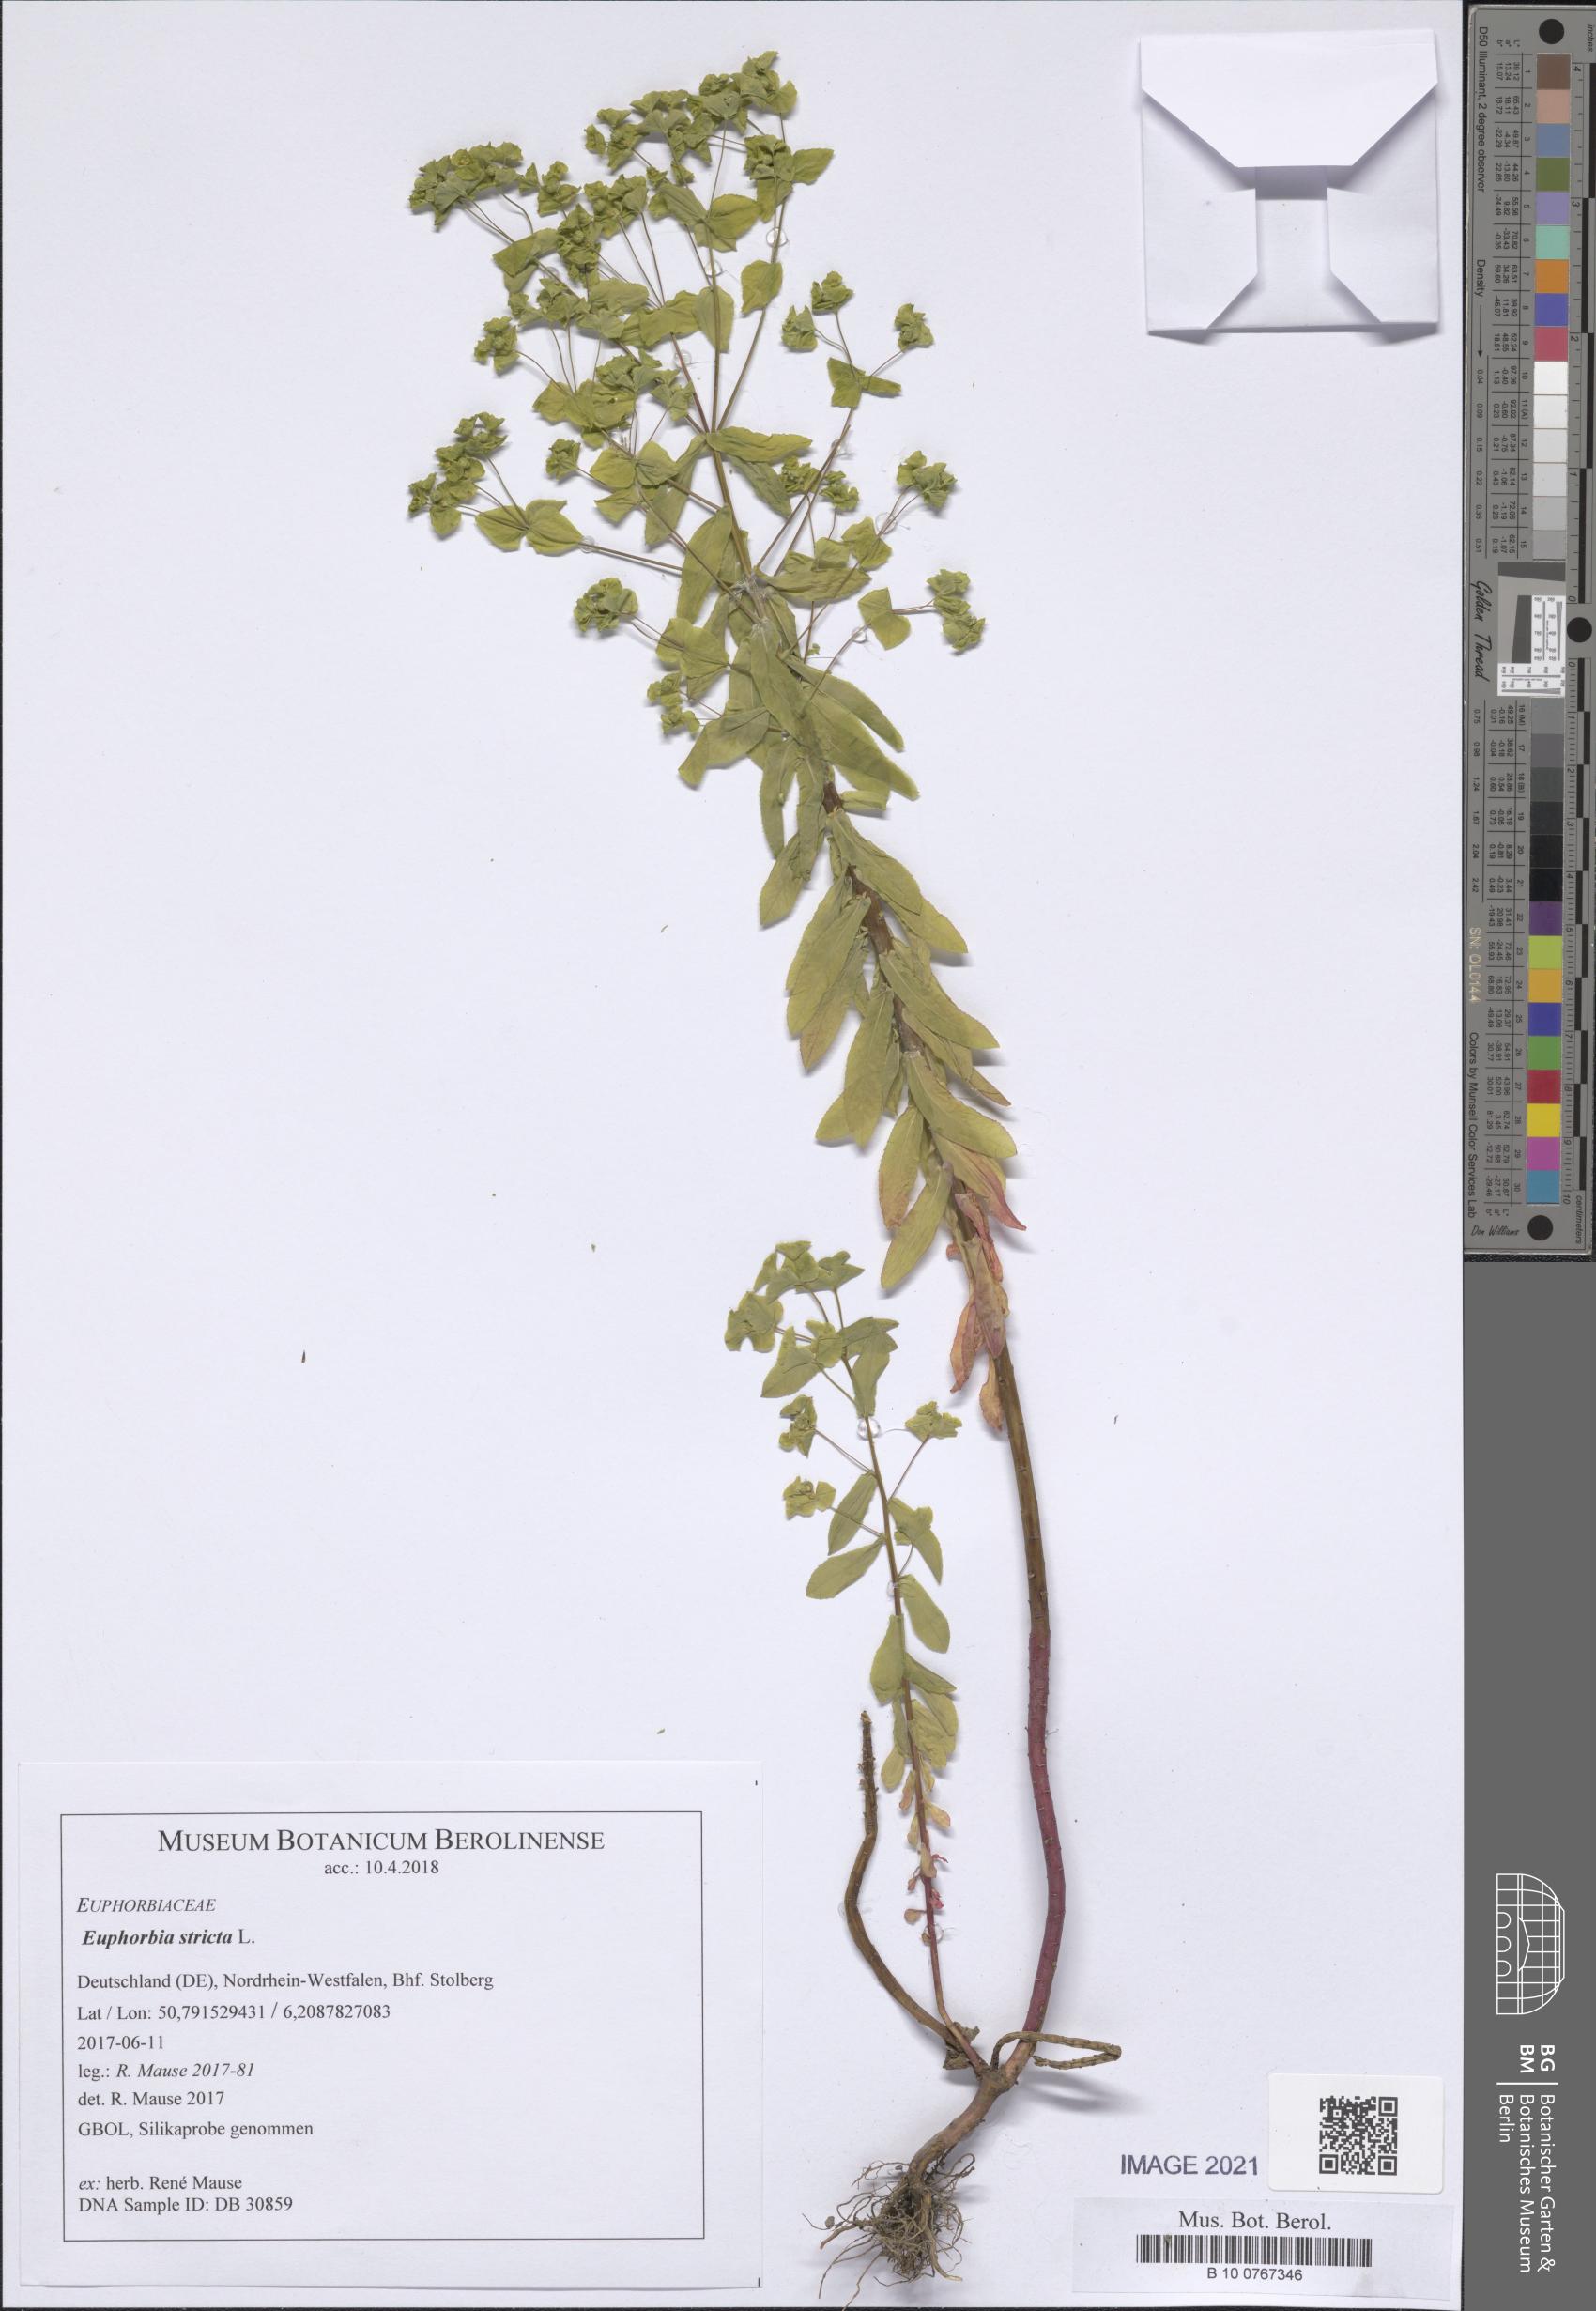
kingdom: Plantae
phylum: Tracheophyta
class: Magnoliopsida
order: Malpighiales
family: Euphorbiaceae
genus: Euphorbia
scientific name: Euphorbia stricta
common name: Upright spurge
